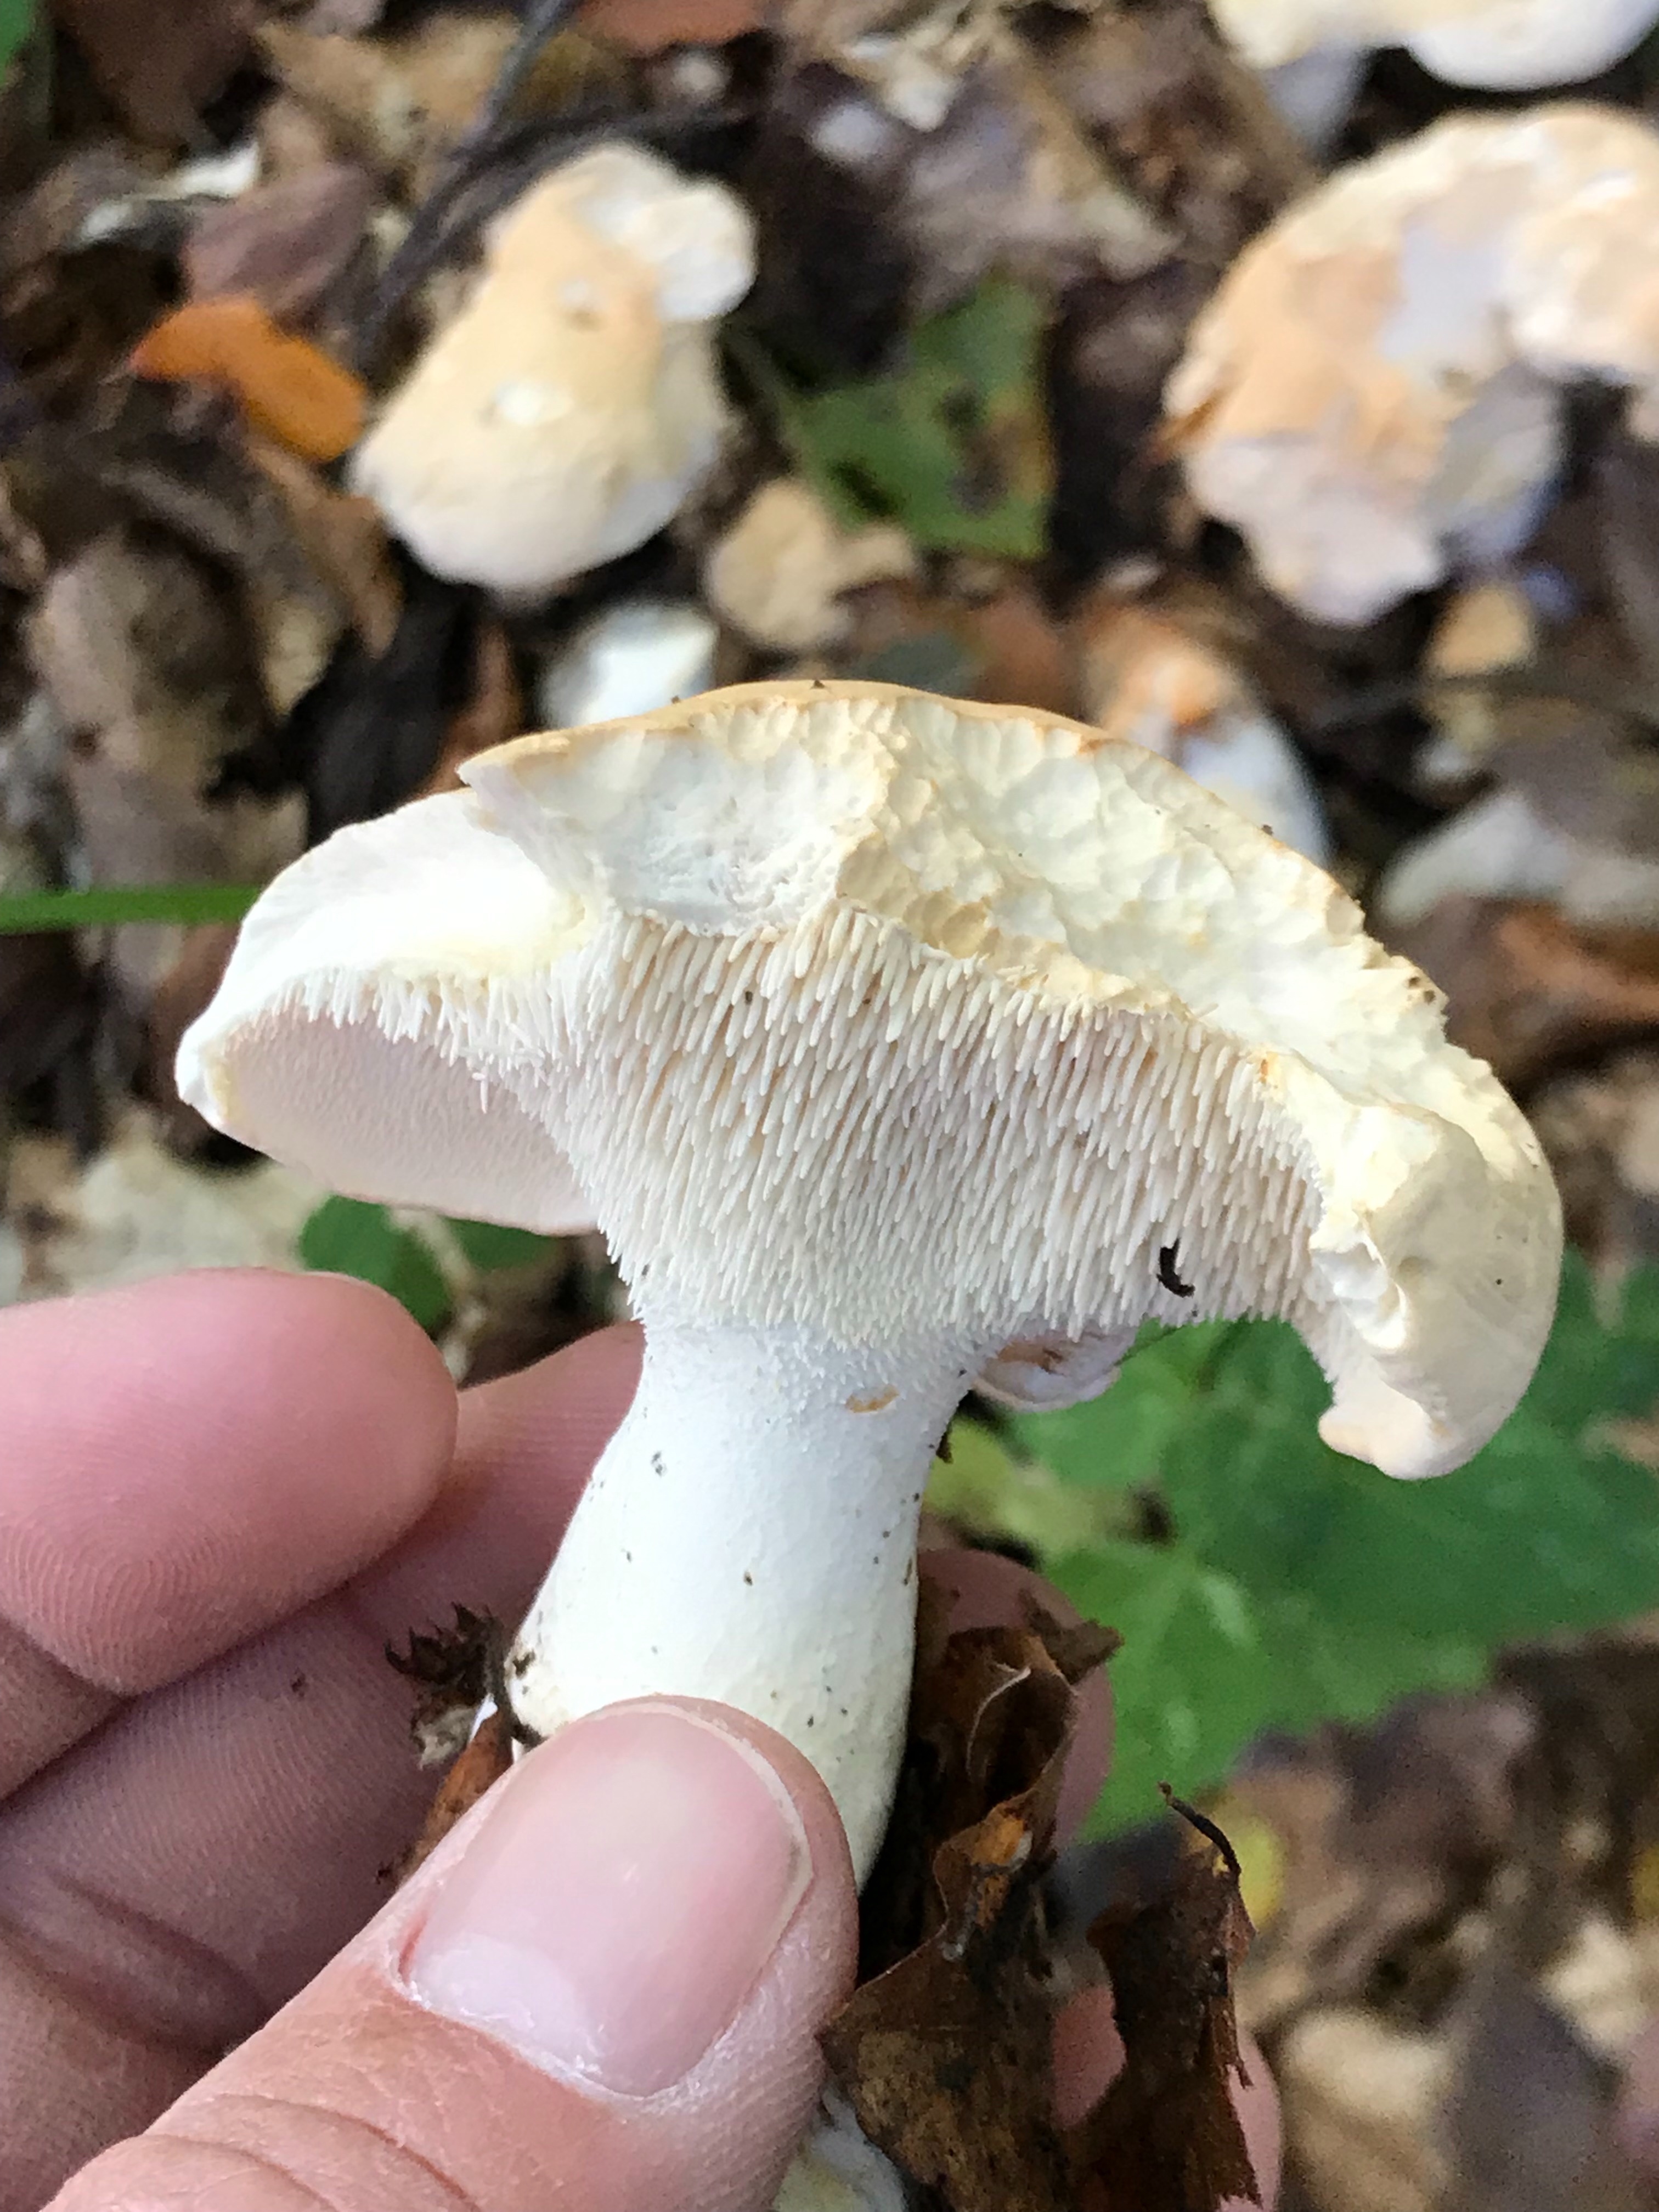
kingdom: Fungi
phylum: Basidiomycota
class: Agaricomycetes
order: Cantharellales
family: Hydnaceae
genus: Hydnum
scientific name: Hydnum
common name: pigsvamp
